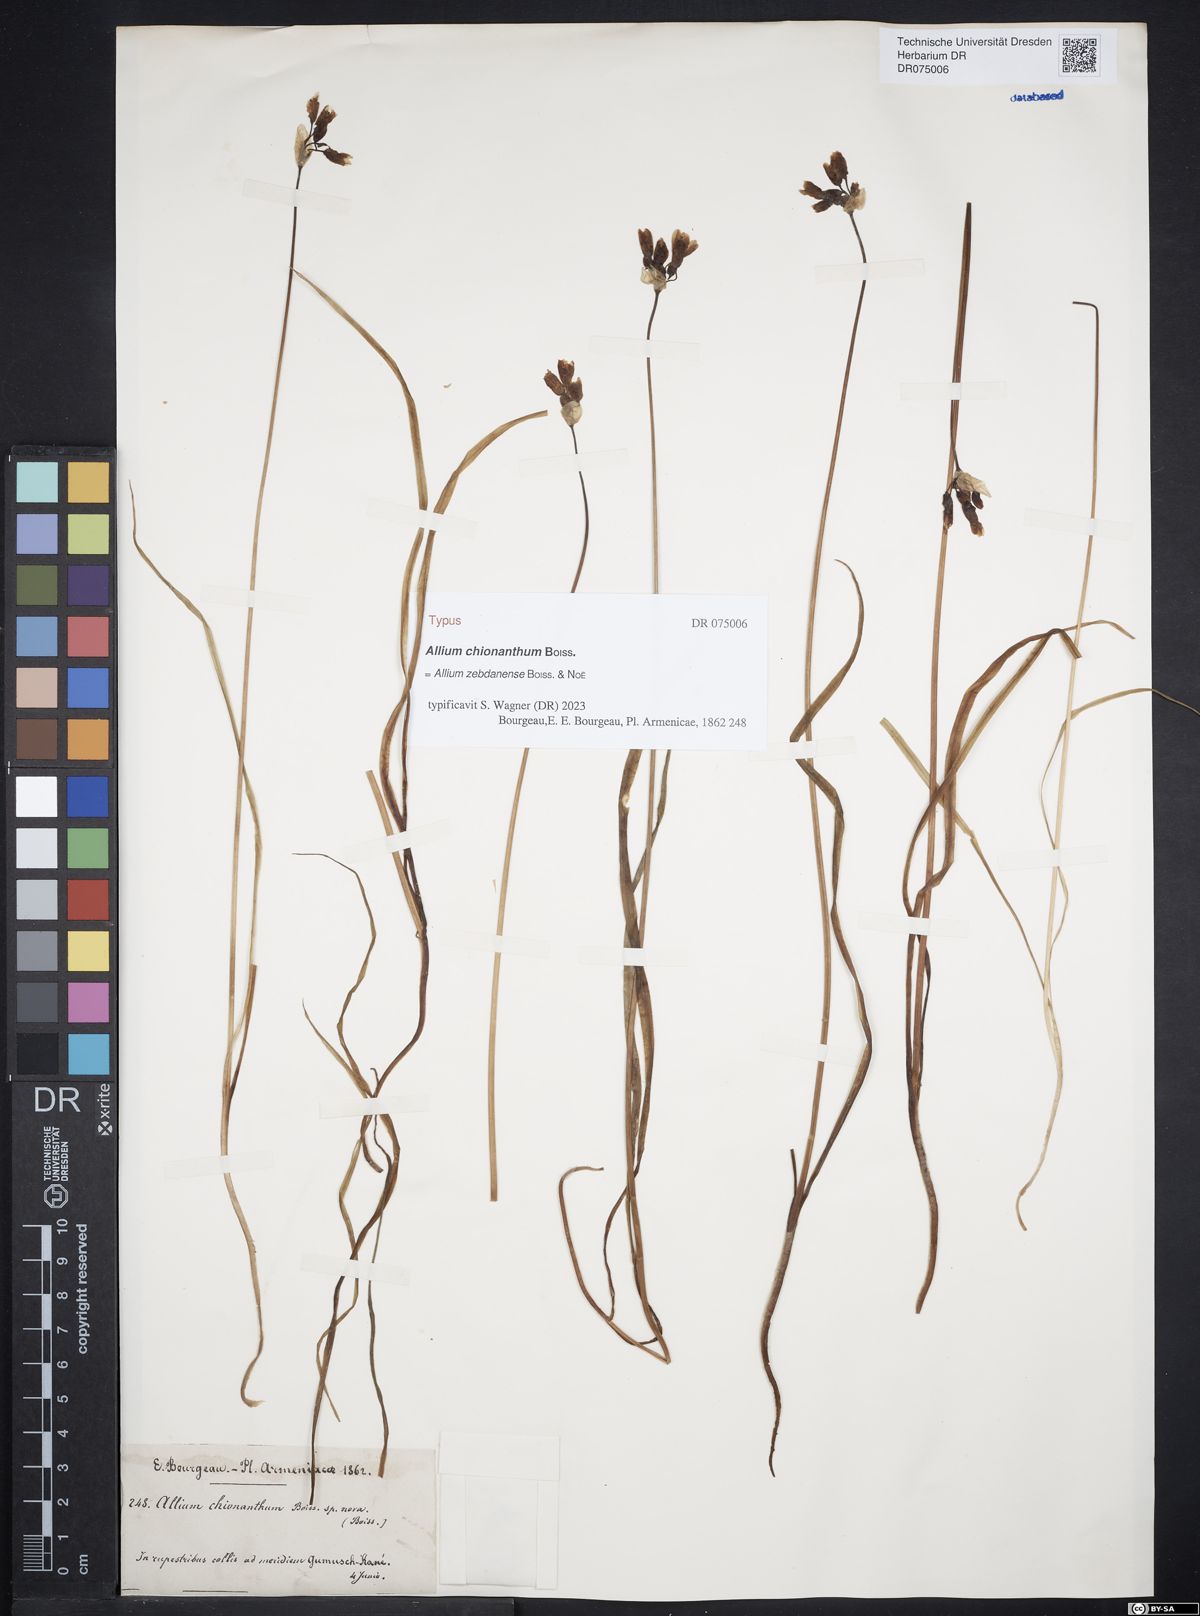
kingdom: Plantae
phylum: Tracheophyta
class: Liliopsida
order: Asparagales
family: Amaryllidaceae
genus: Allium
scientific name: Allium zebdanense
